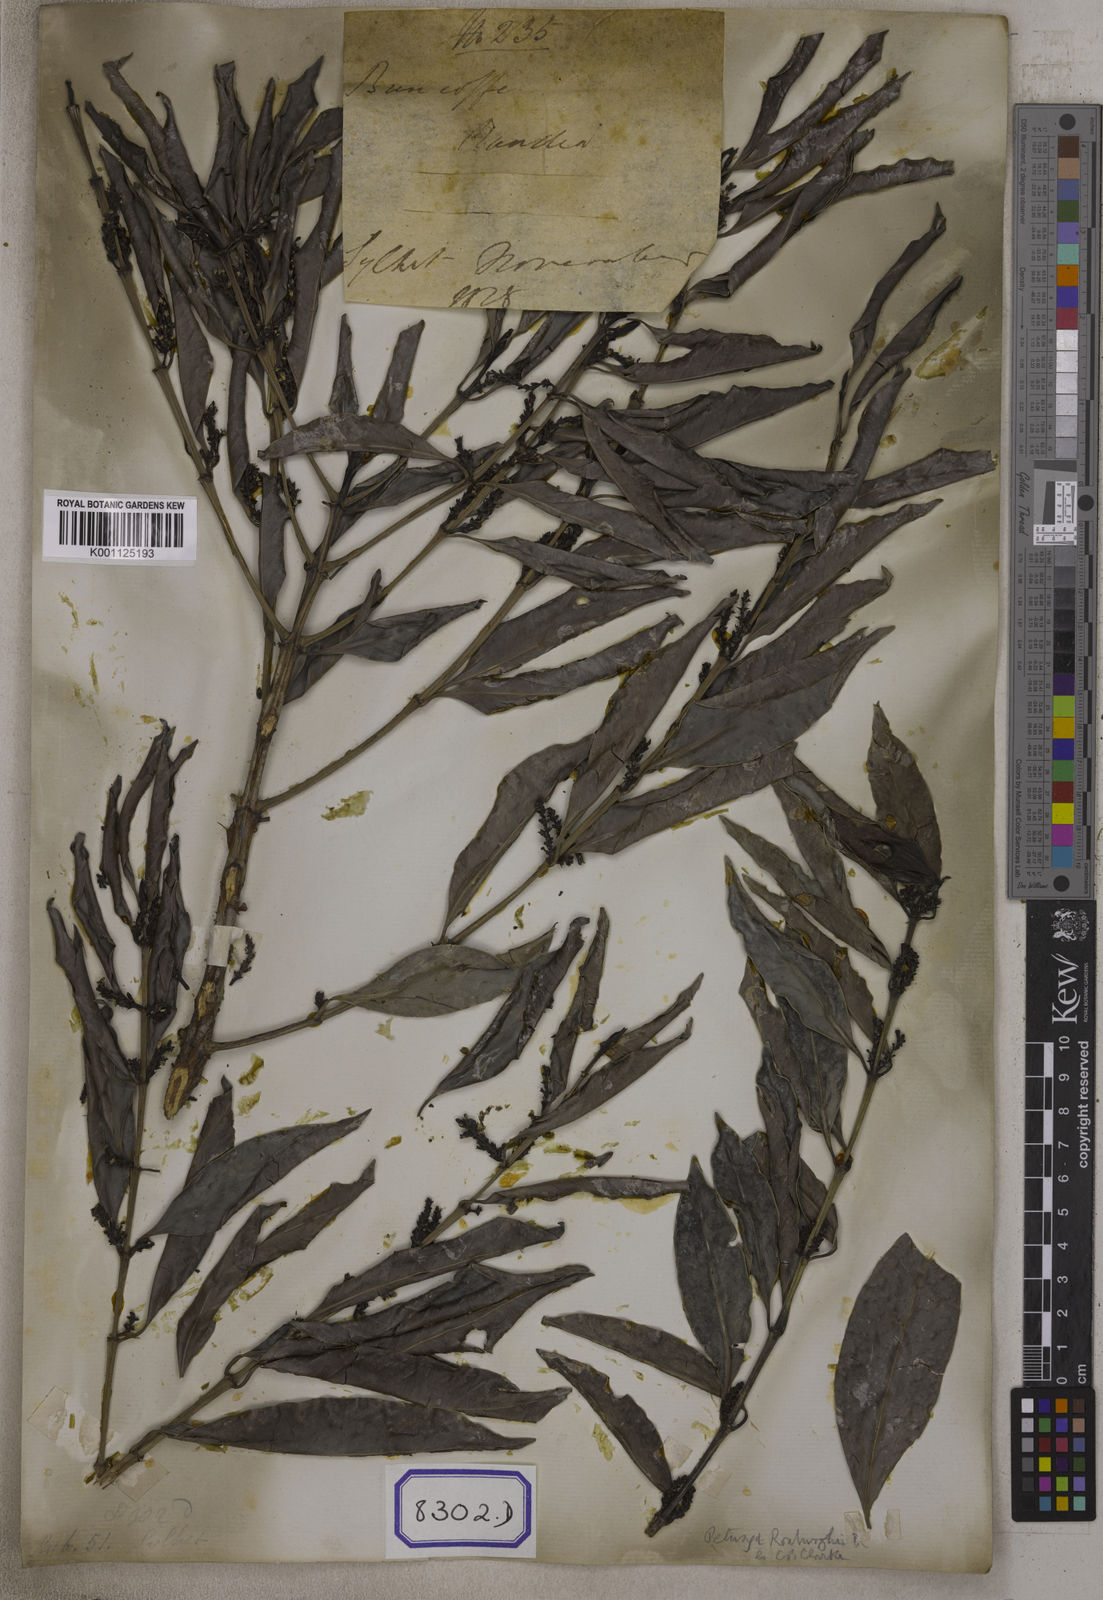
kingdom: Plantae
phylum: Tracheophyta
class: Magnoliopsida
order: Gentianales
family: Rubiaceae
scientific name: Rubiaceae
